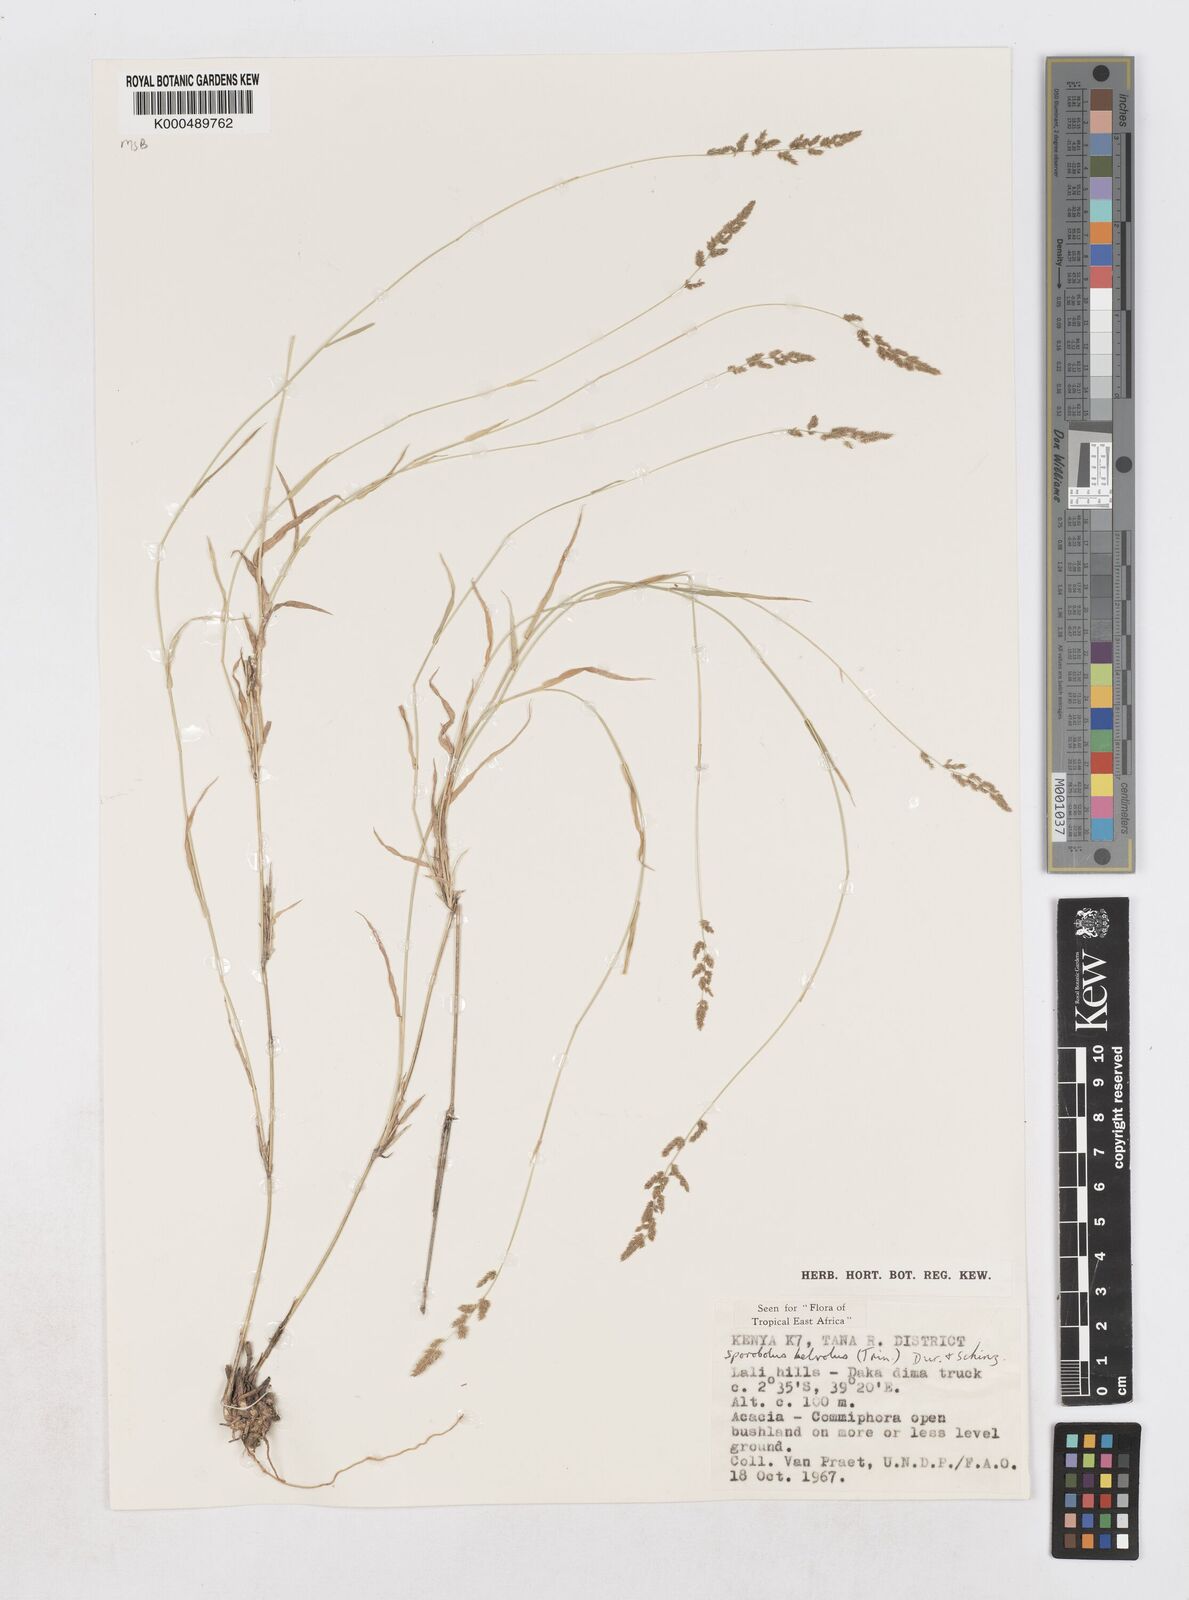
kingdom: Plantae
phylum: Tracheophyta
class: Liliopsida
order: Poales
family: Poaceae
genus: Sporobolus
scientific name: Sporobolus helvolus
